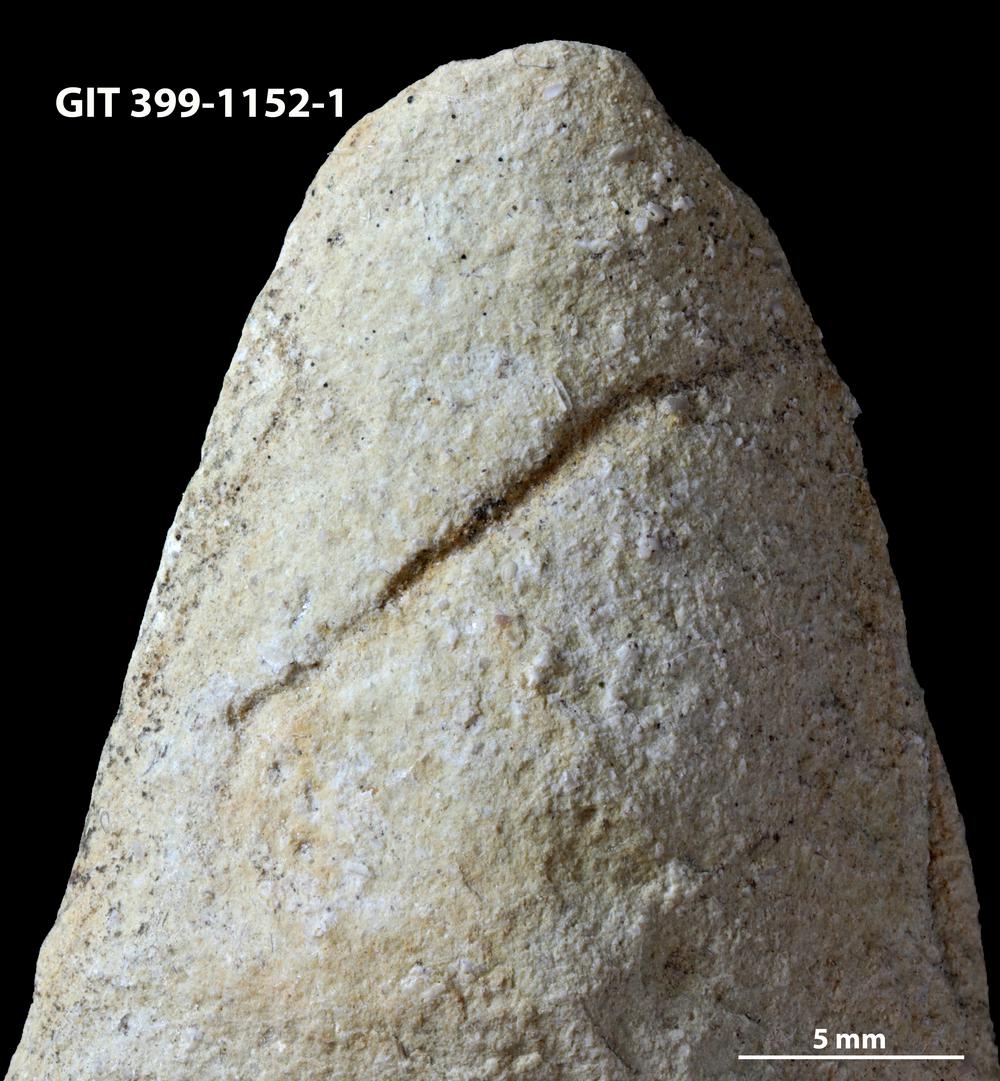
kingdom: Animalia
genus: Palaeophycus
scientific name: Palaeophycus
